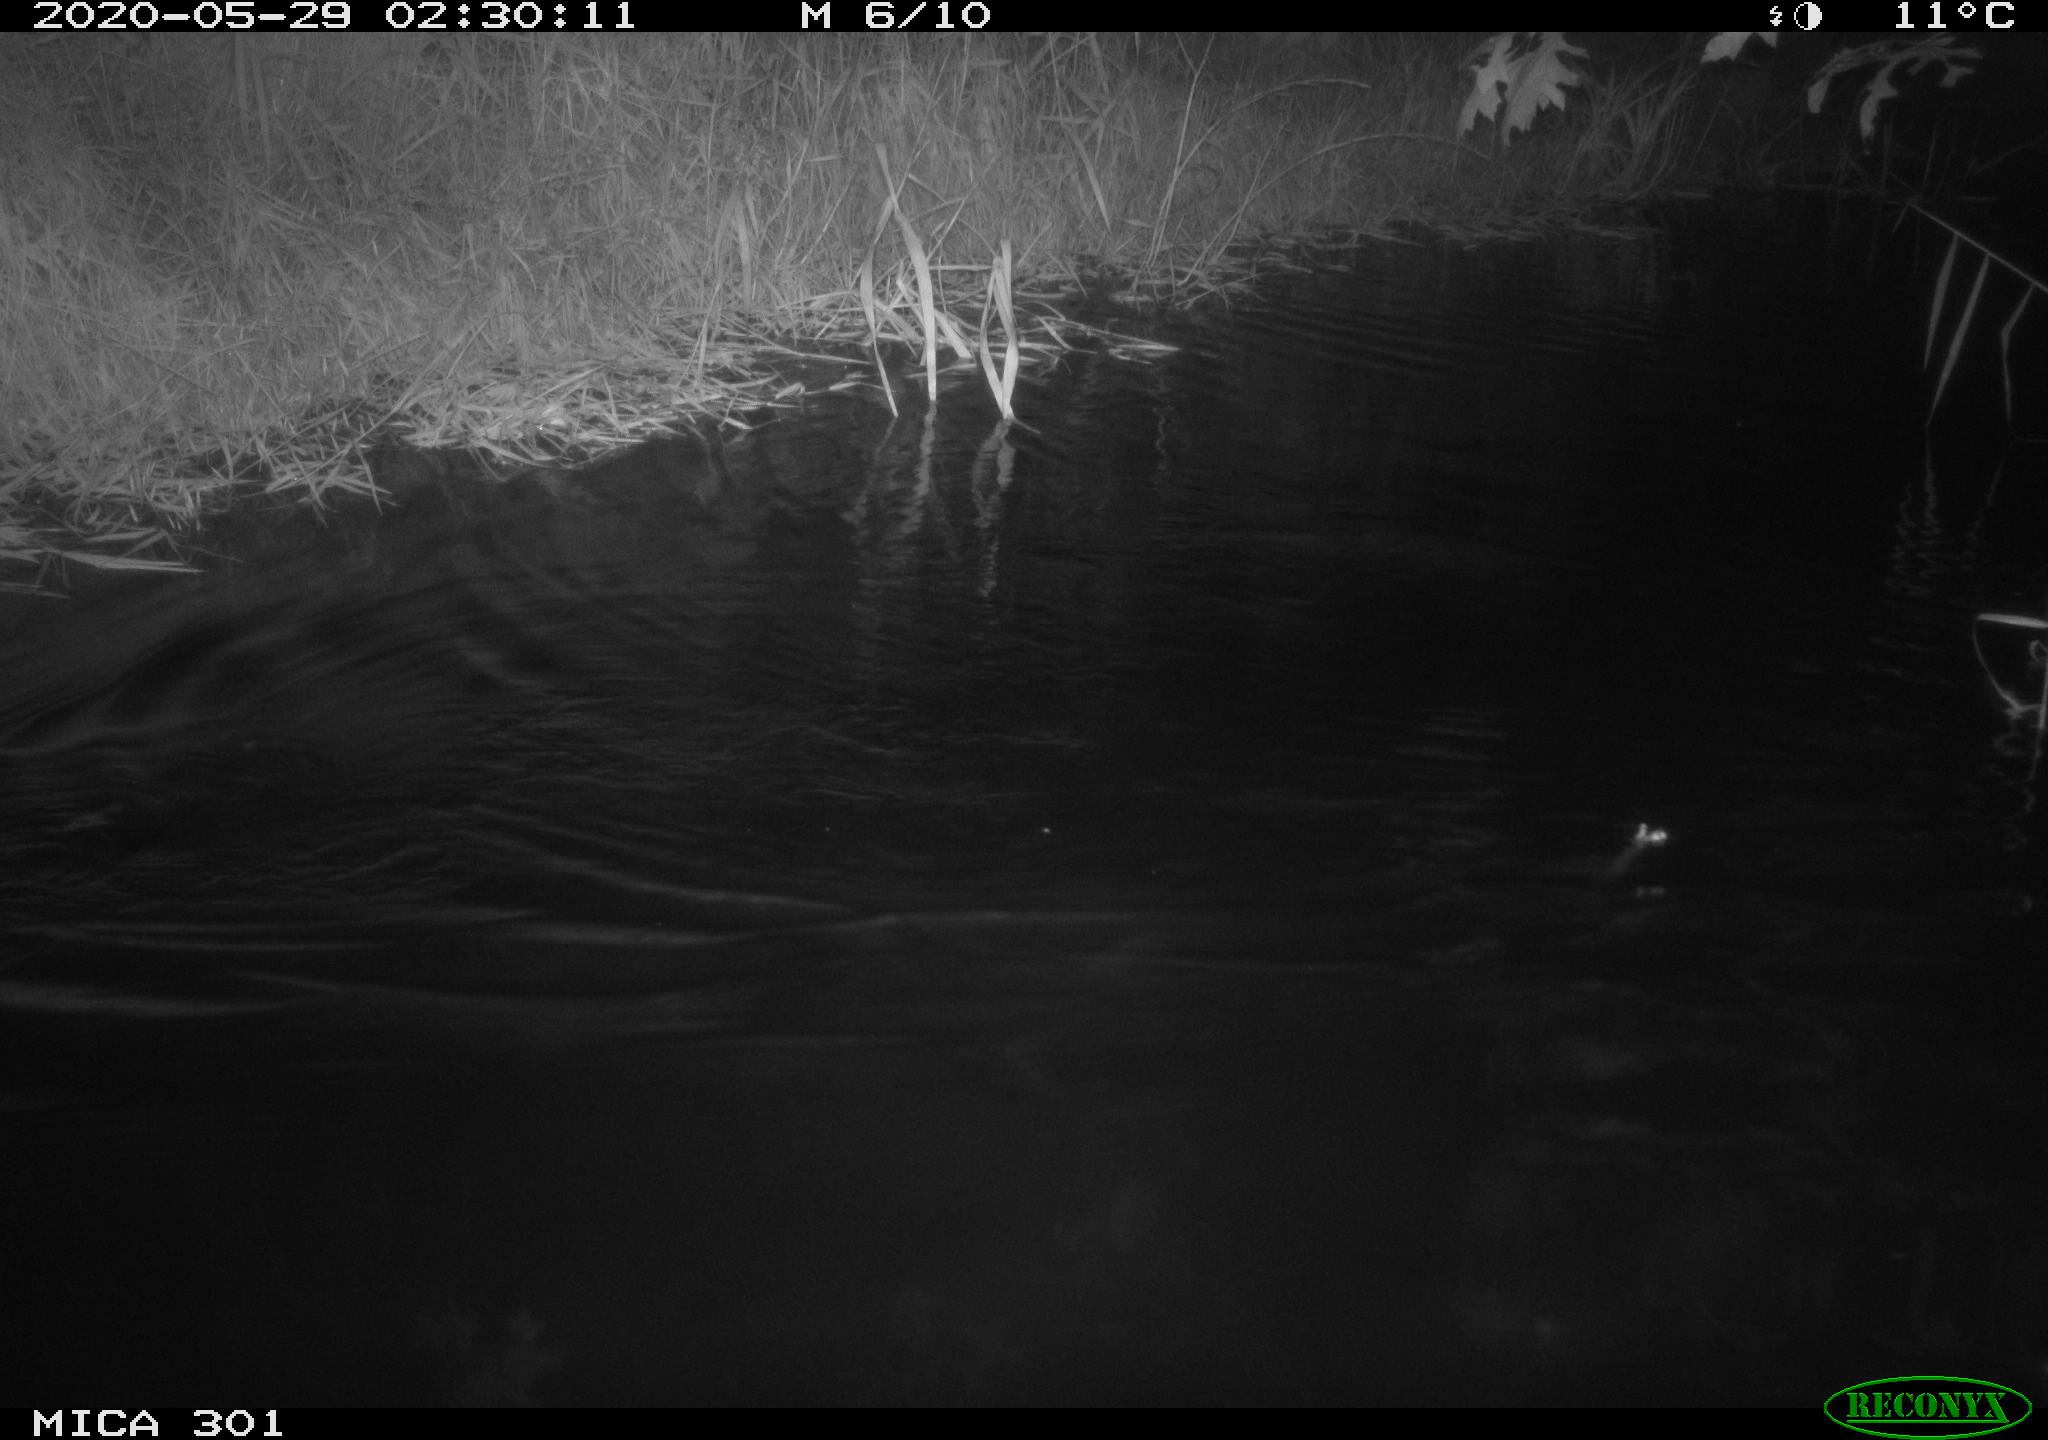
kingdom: Animalia
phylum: Chordata
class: Mammalia
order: Rodentia
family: Castoridae
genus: Castor
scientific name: Castor fiber
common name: Eurasian beaver
